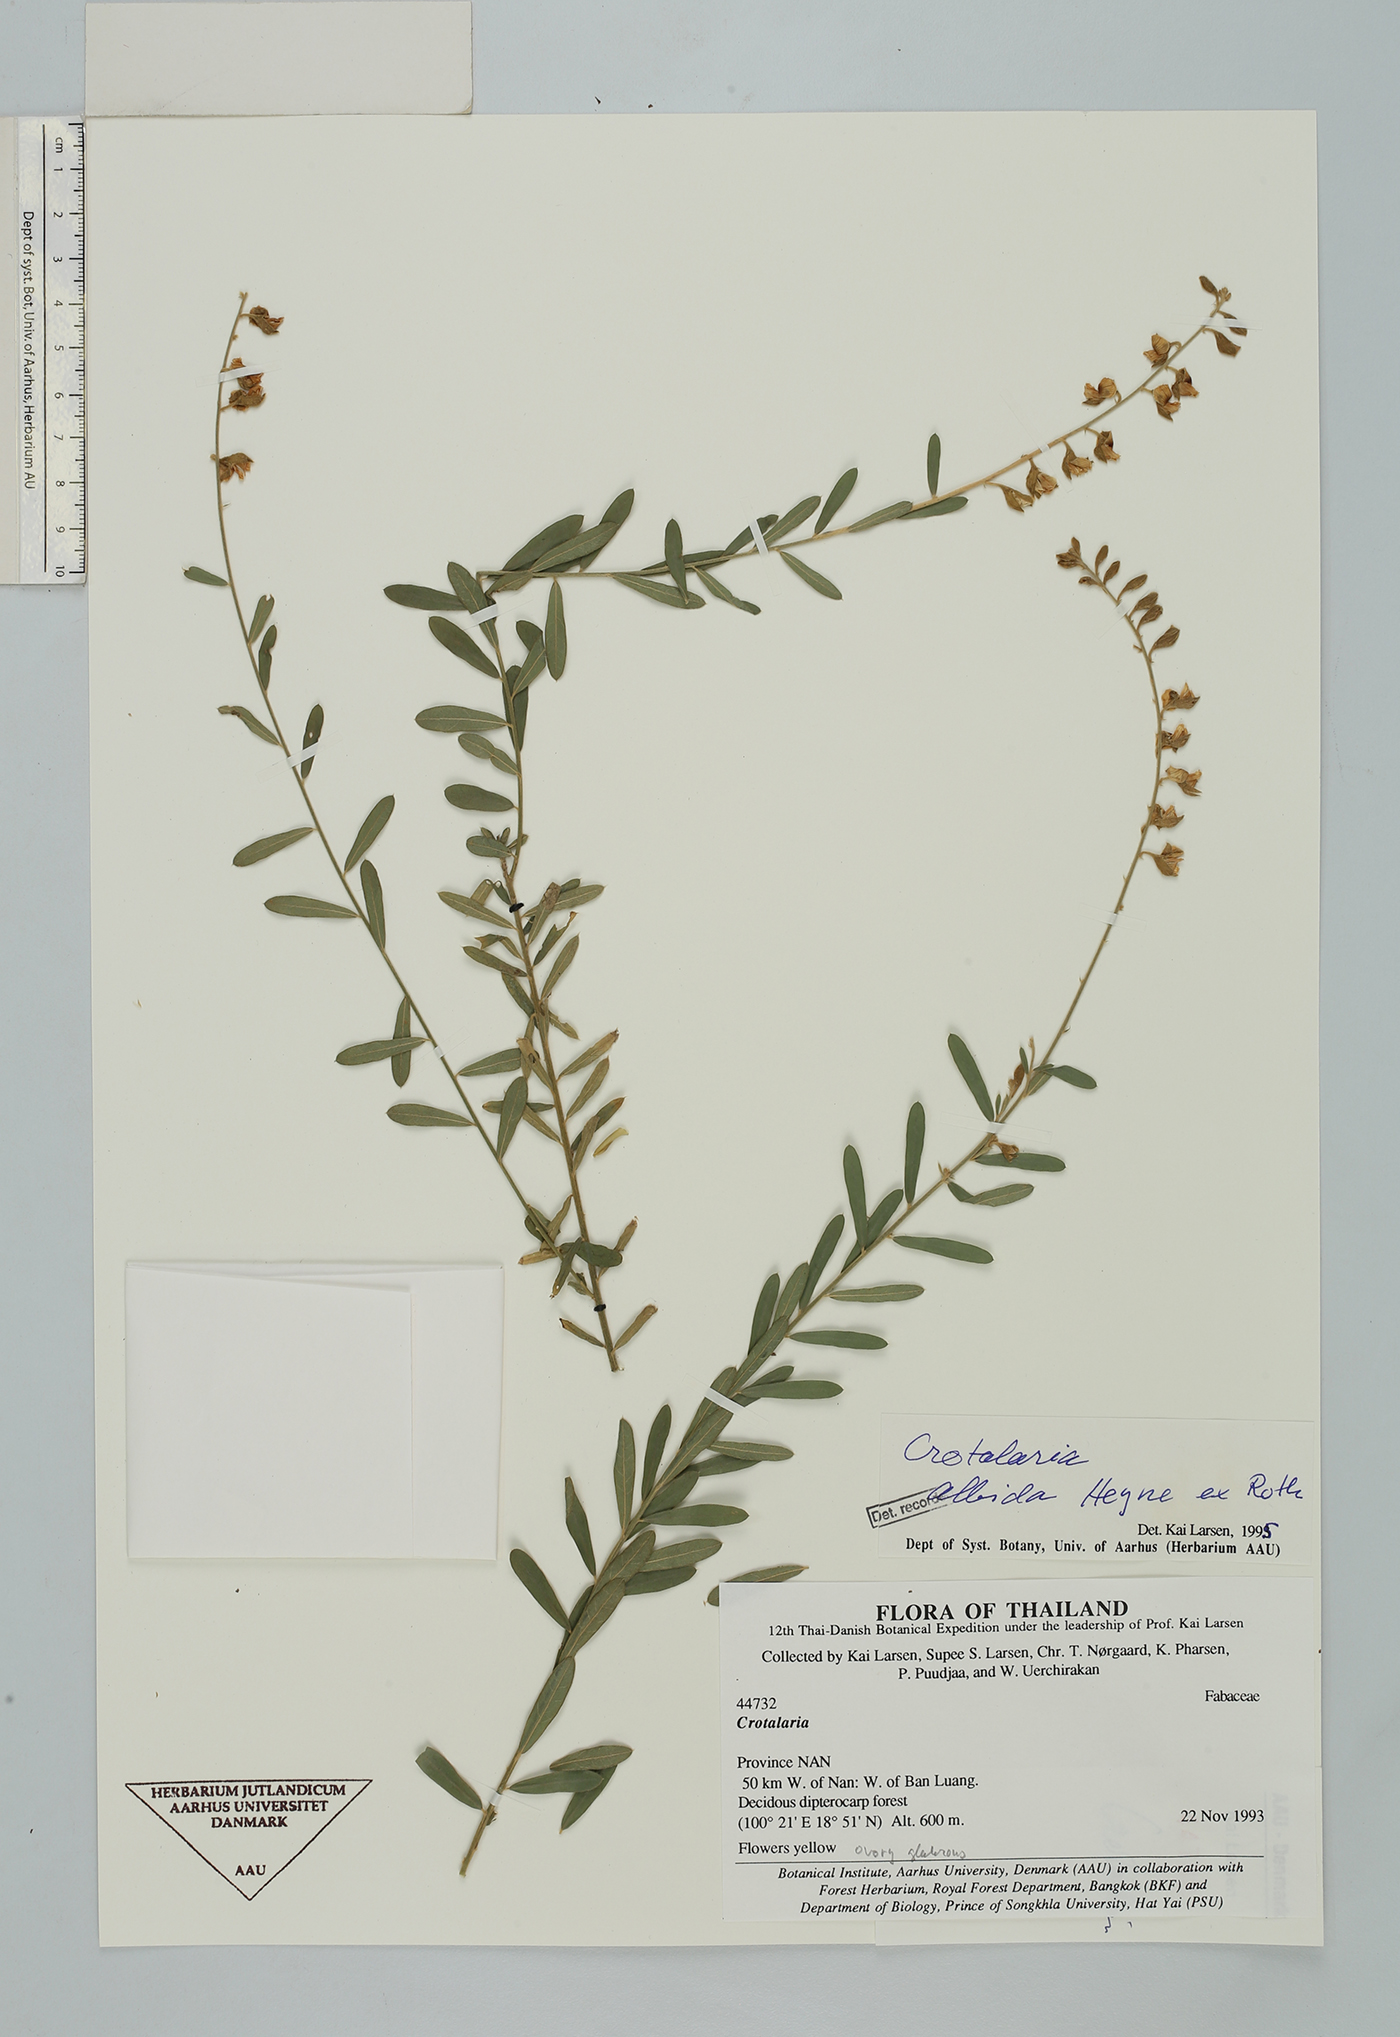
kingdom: Plantae
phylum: Tracheophyta
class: Magnoliopsida
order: Fabales
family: Fabaceae
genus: Crotalaria
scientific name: Crotalaria albida
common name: Taiwan crotalaria
